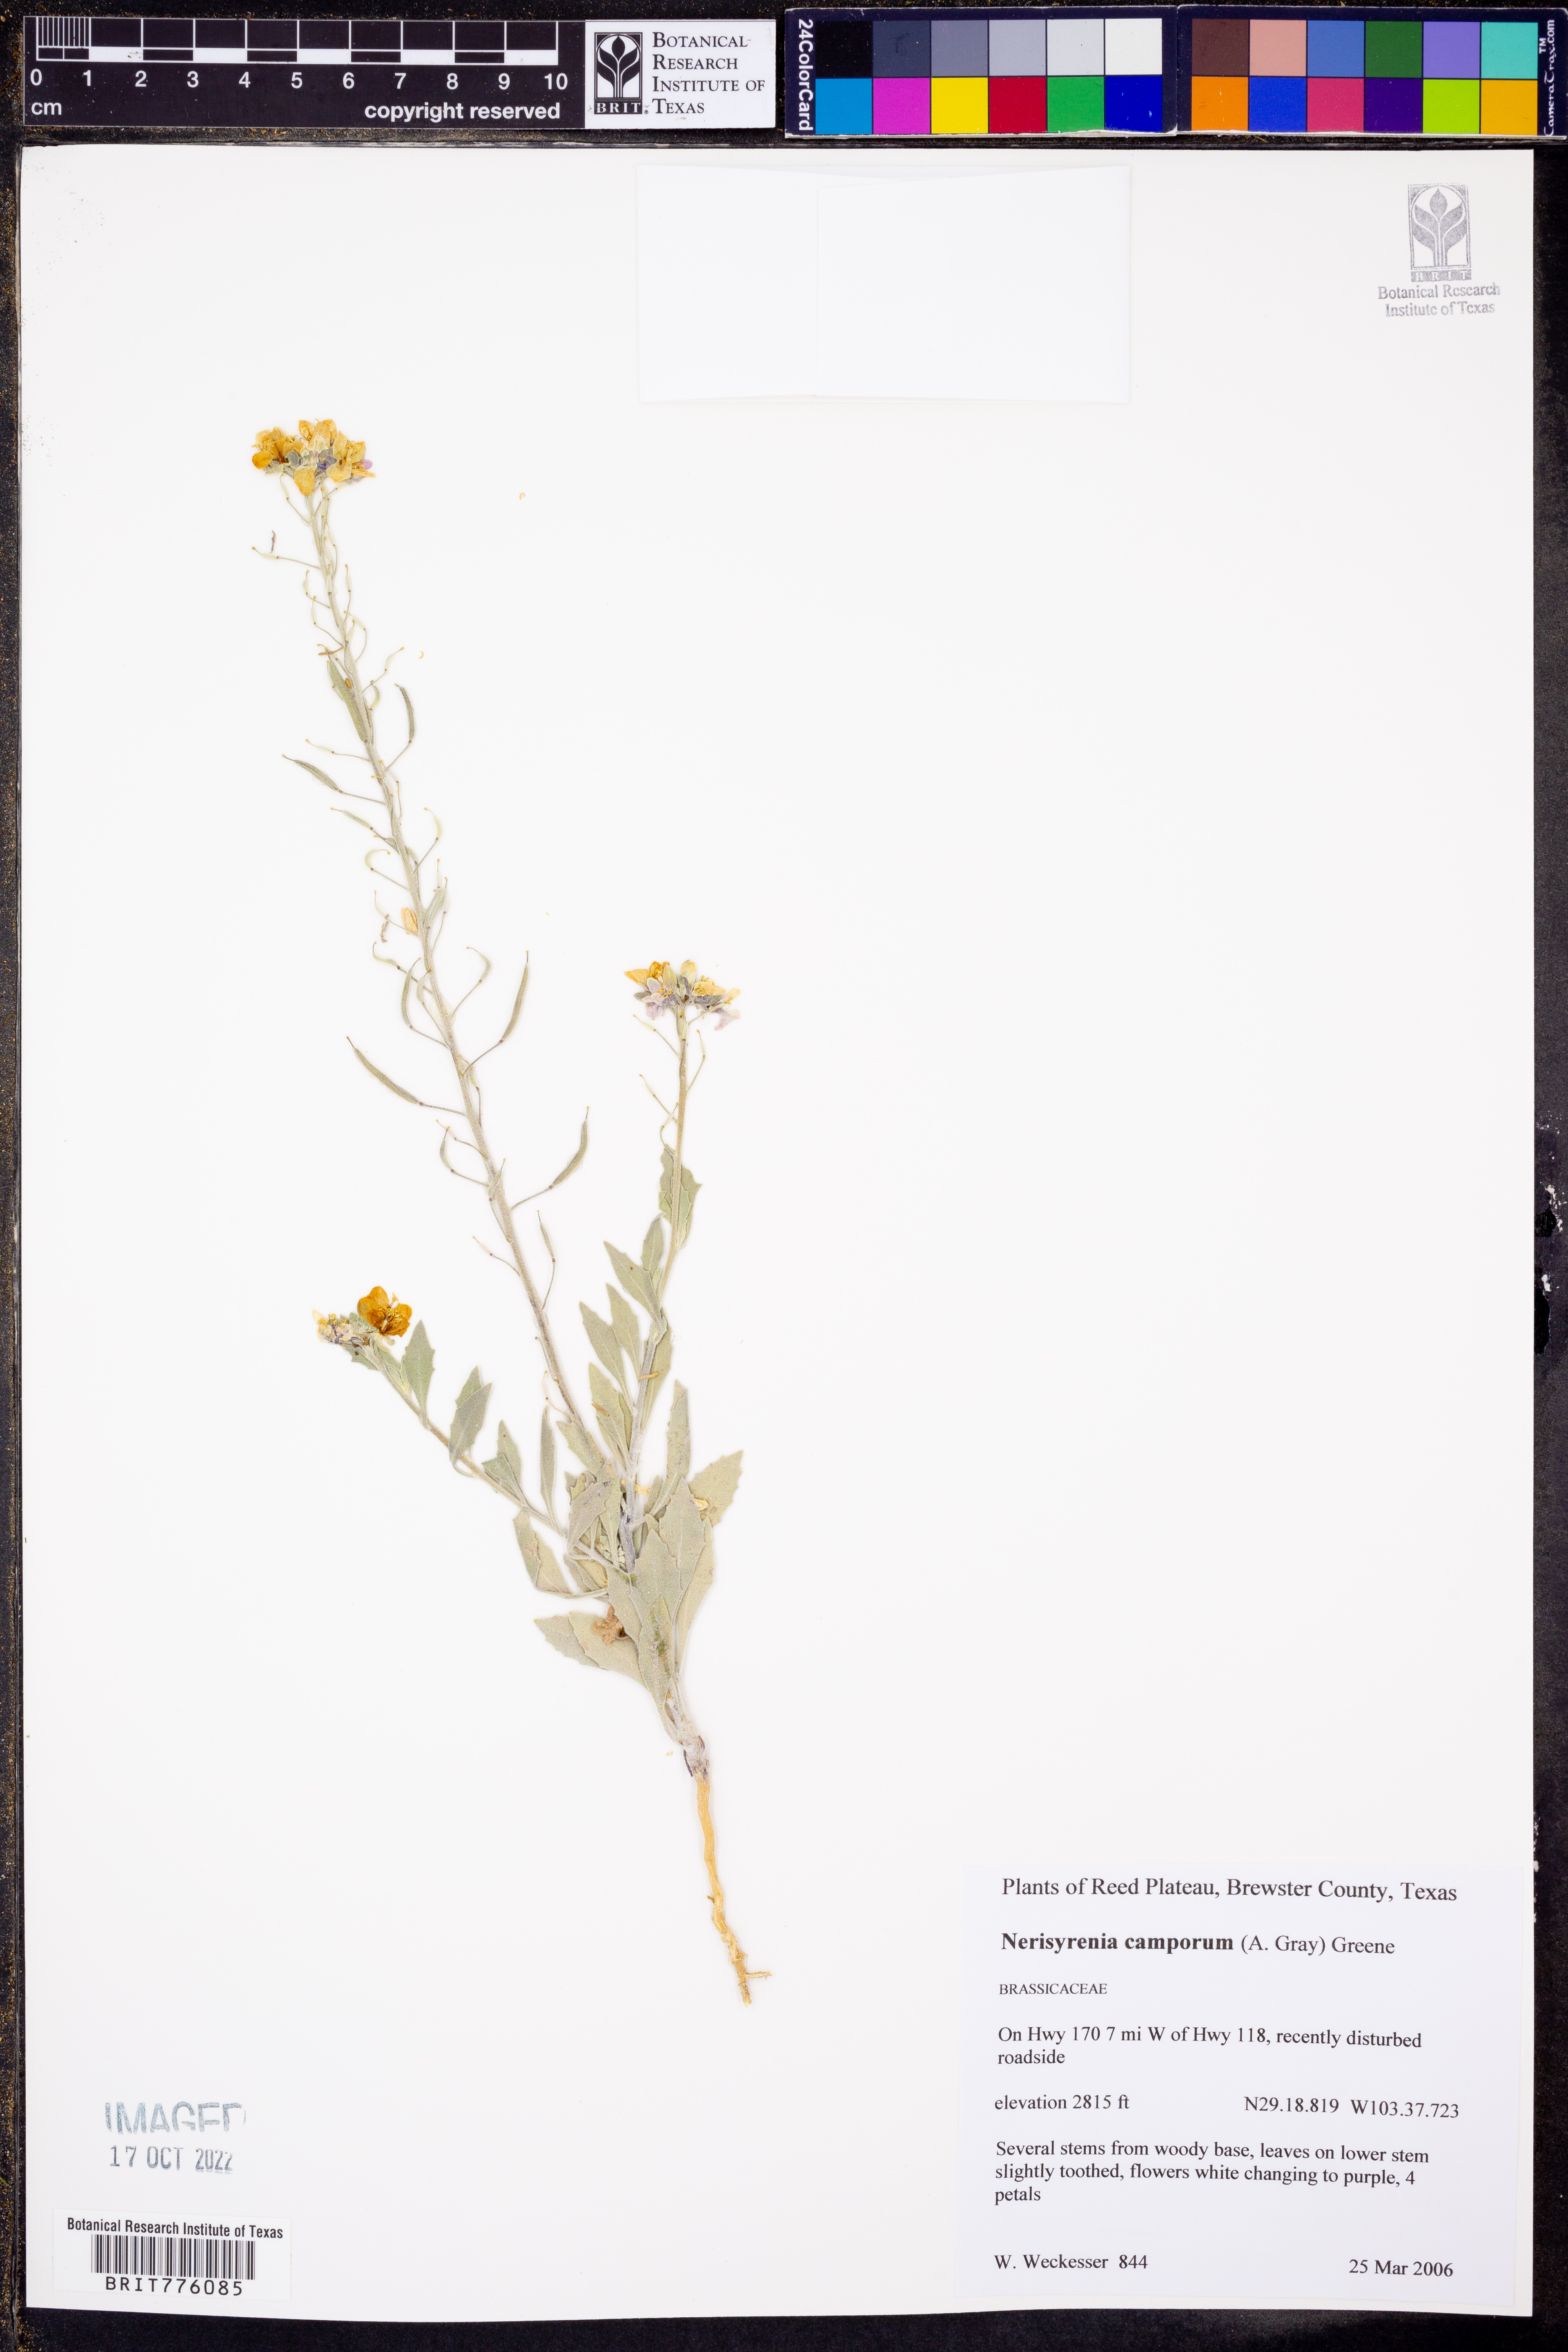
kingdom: Plantae
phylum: Tracheophyta
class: Magnoliopsida
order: Brassicales
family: Brassicaceae
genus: Nerisyrenia
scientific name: Nerisyrenia camporum
